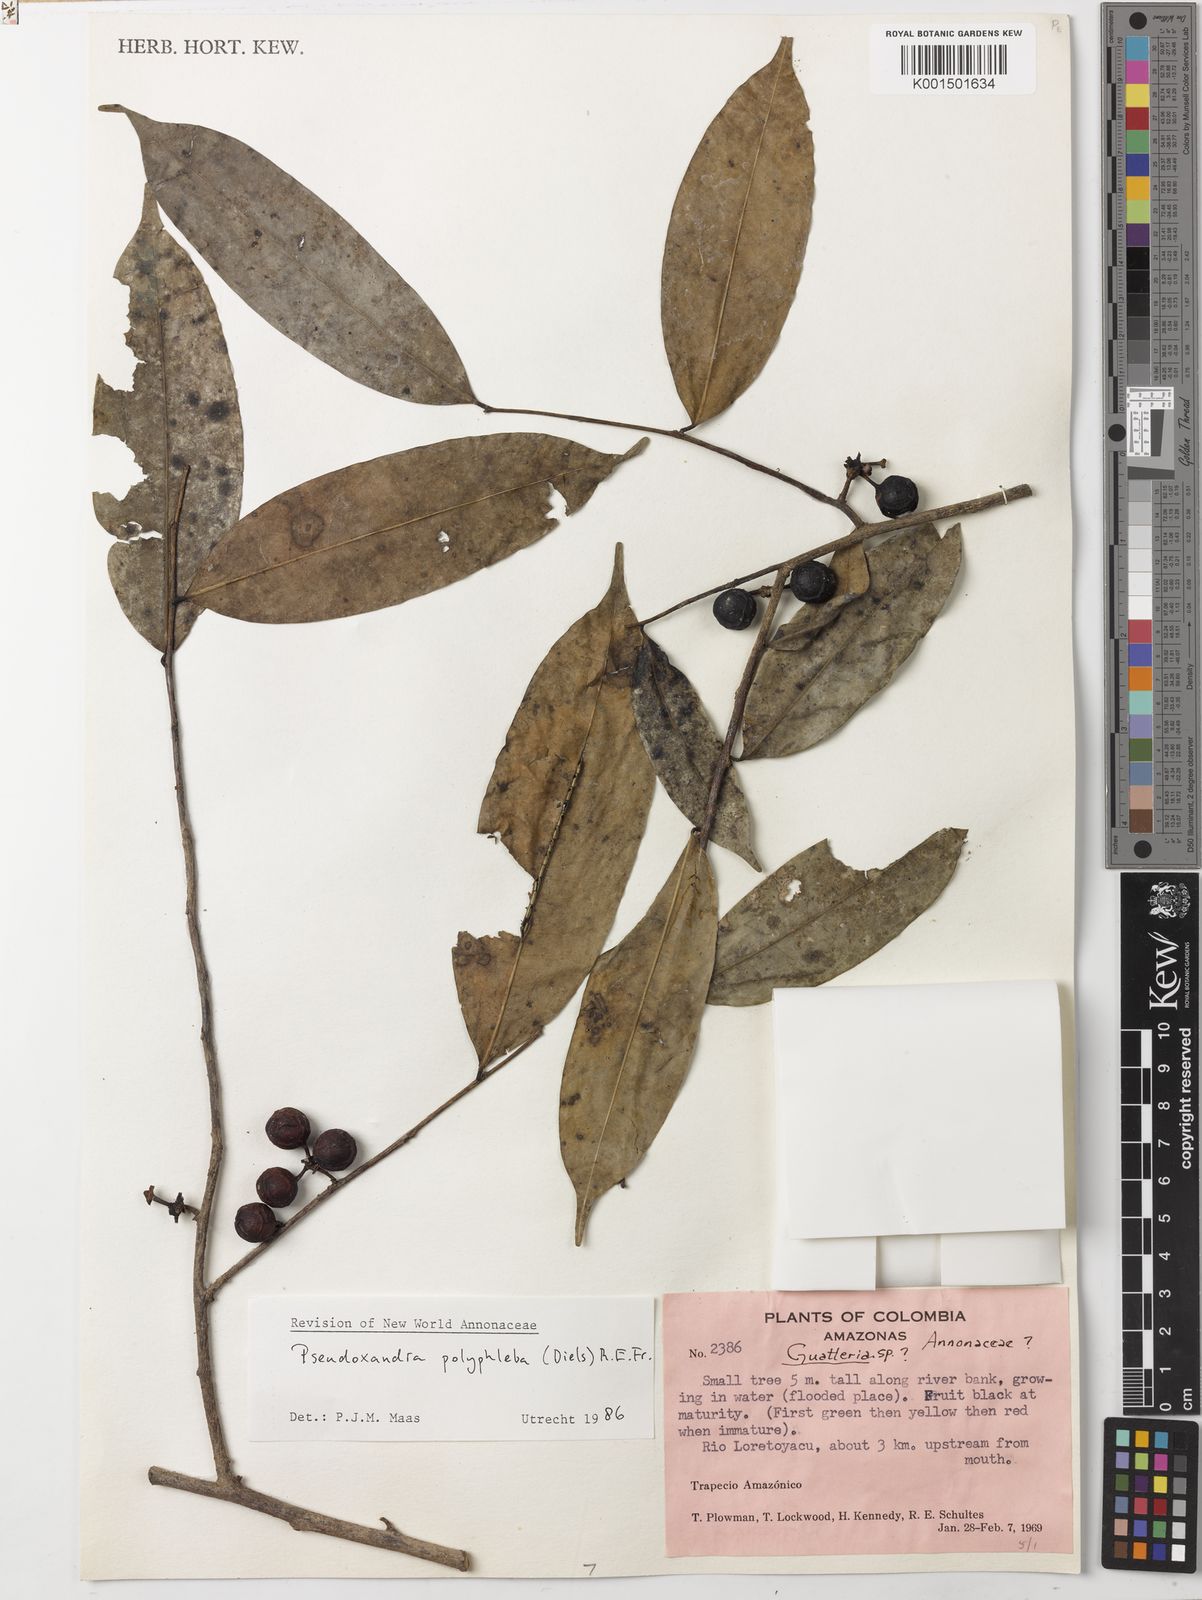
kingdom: Plantae
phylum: Tracheophyta
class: Magnoliopsida
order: Magnoliales
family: Annonaceae
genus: Pseudoxandra
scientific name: Pseudoxandra polyphleba
